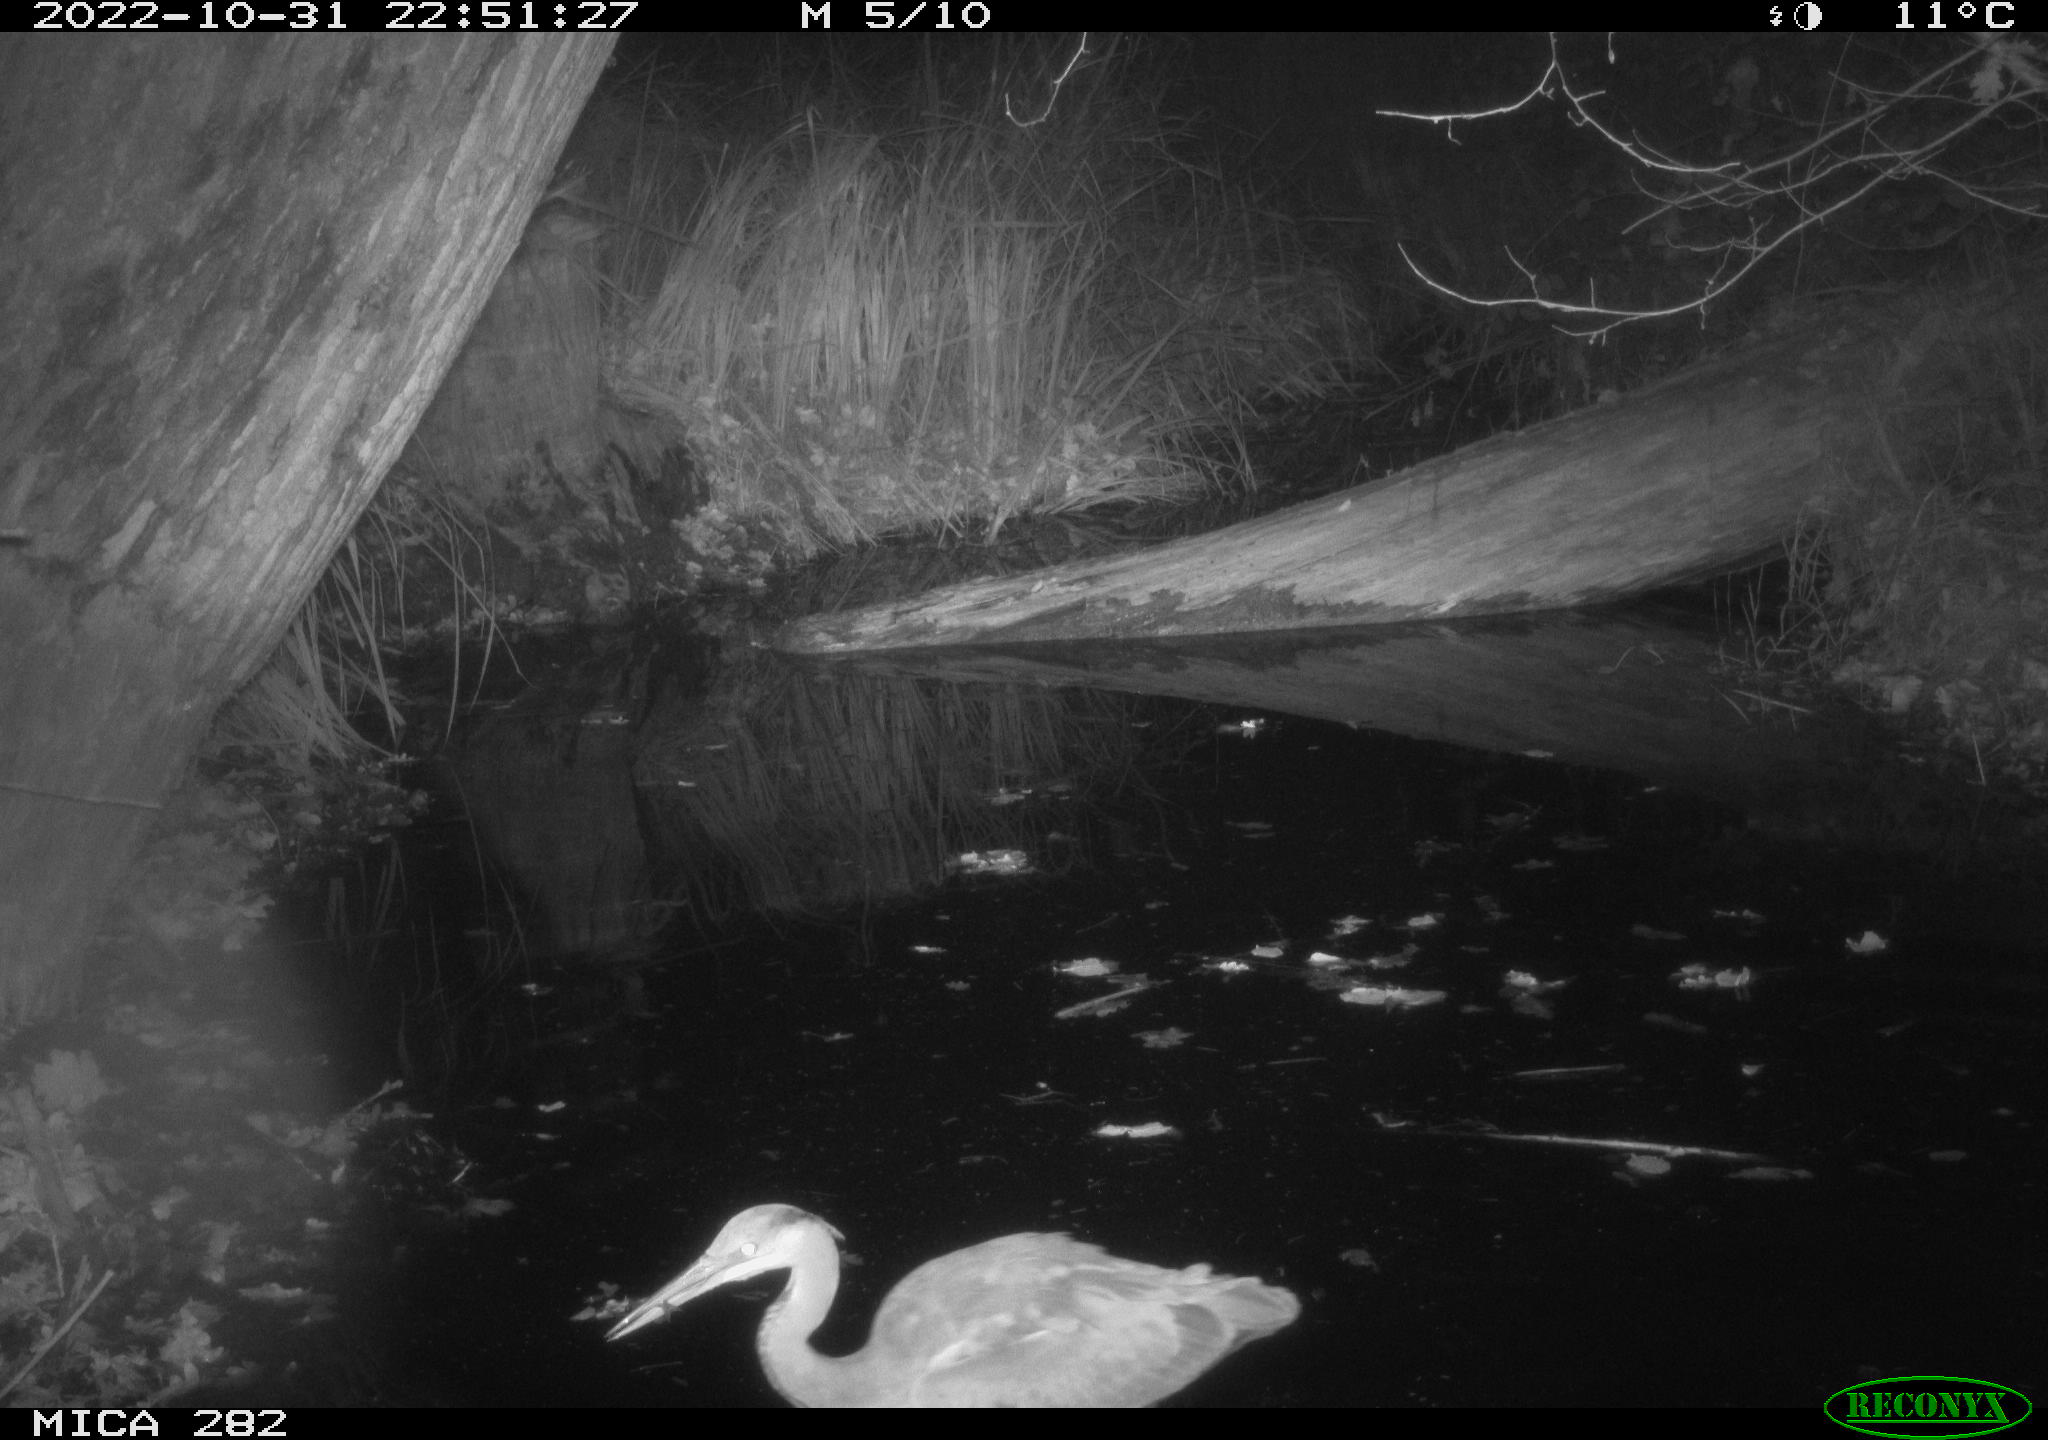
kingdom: Animalia
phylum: Chordata
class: Aves
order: Pelecaniformes
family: Ardeidae
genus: Ardea
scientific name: Ardea cinerea
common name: Grey heron
